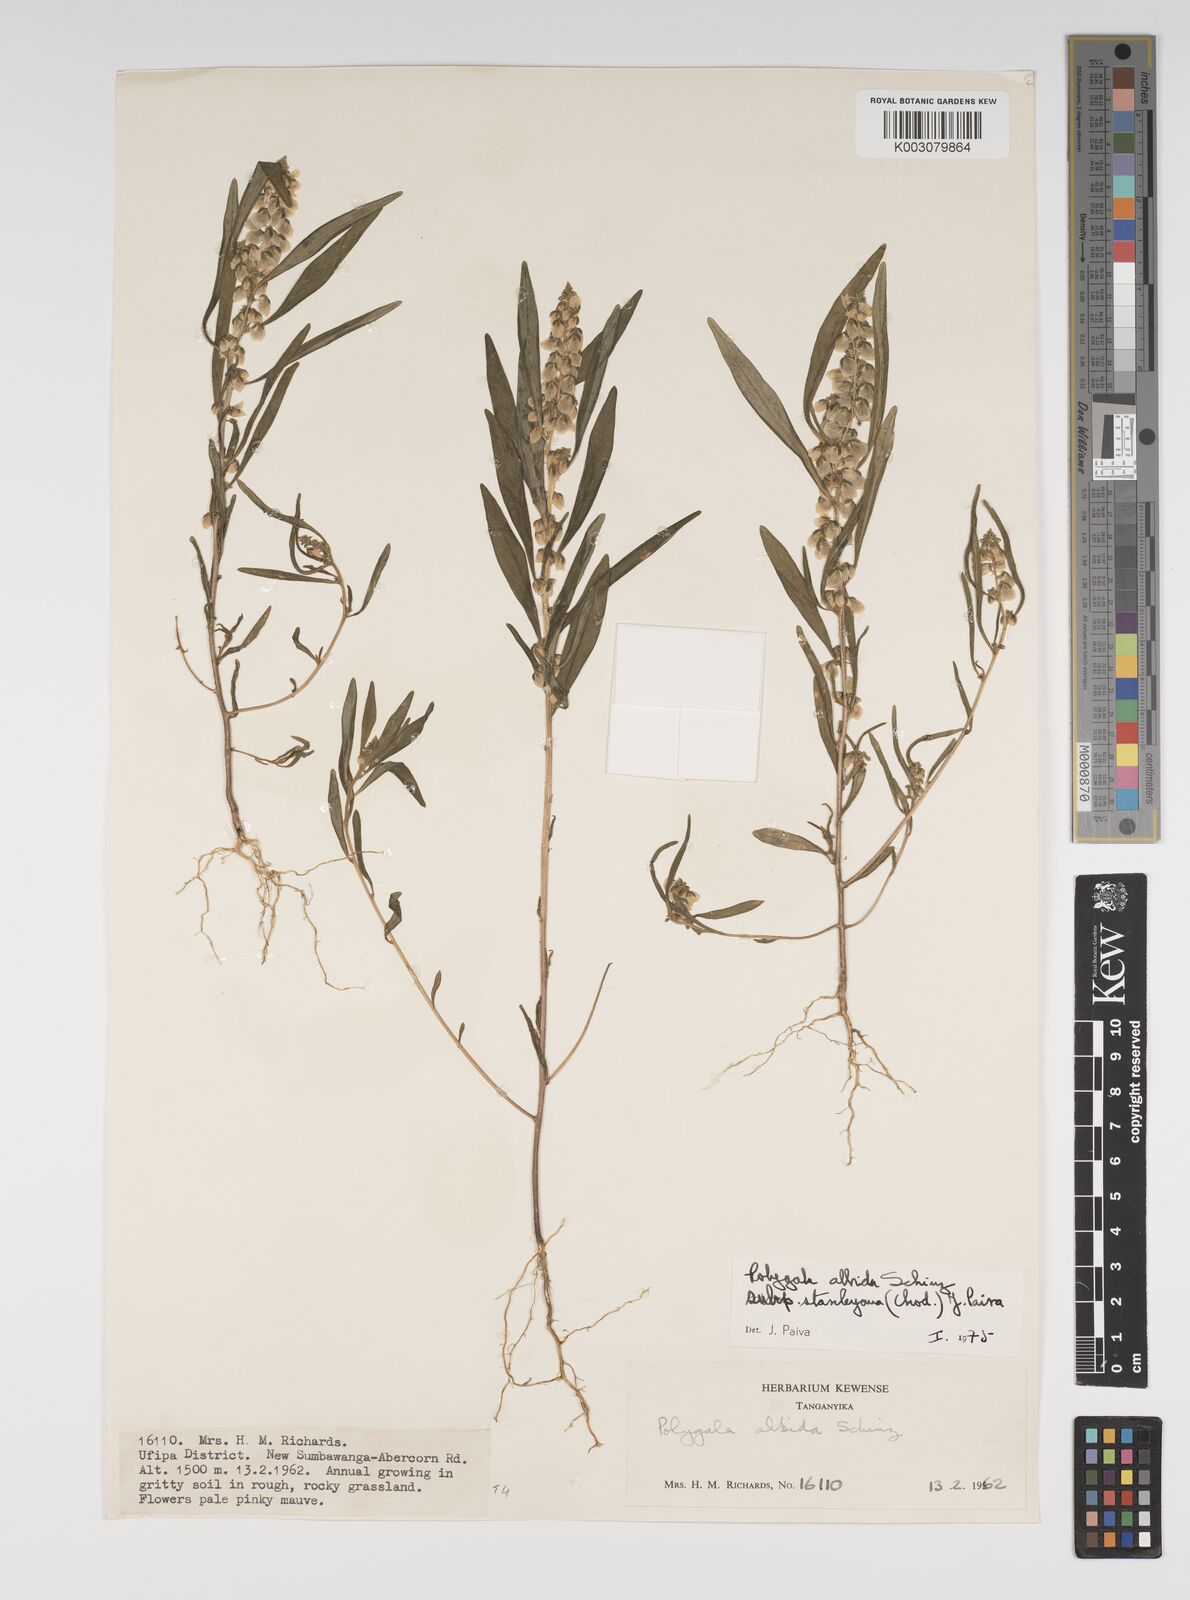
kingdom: Plantae
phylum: Tracheophyta
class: Magnoliopsida
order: Fabales
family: Polygalaceae
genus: Polygala
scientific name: Polygala albida
